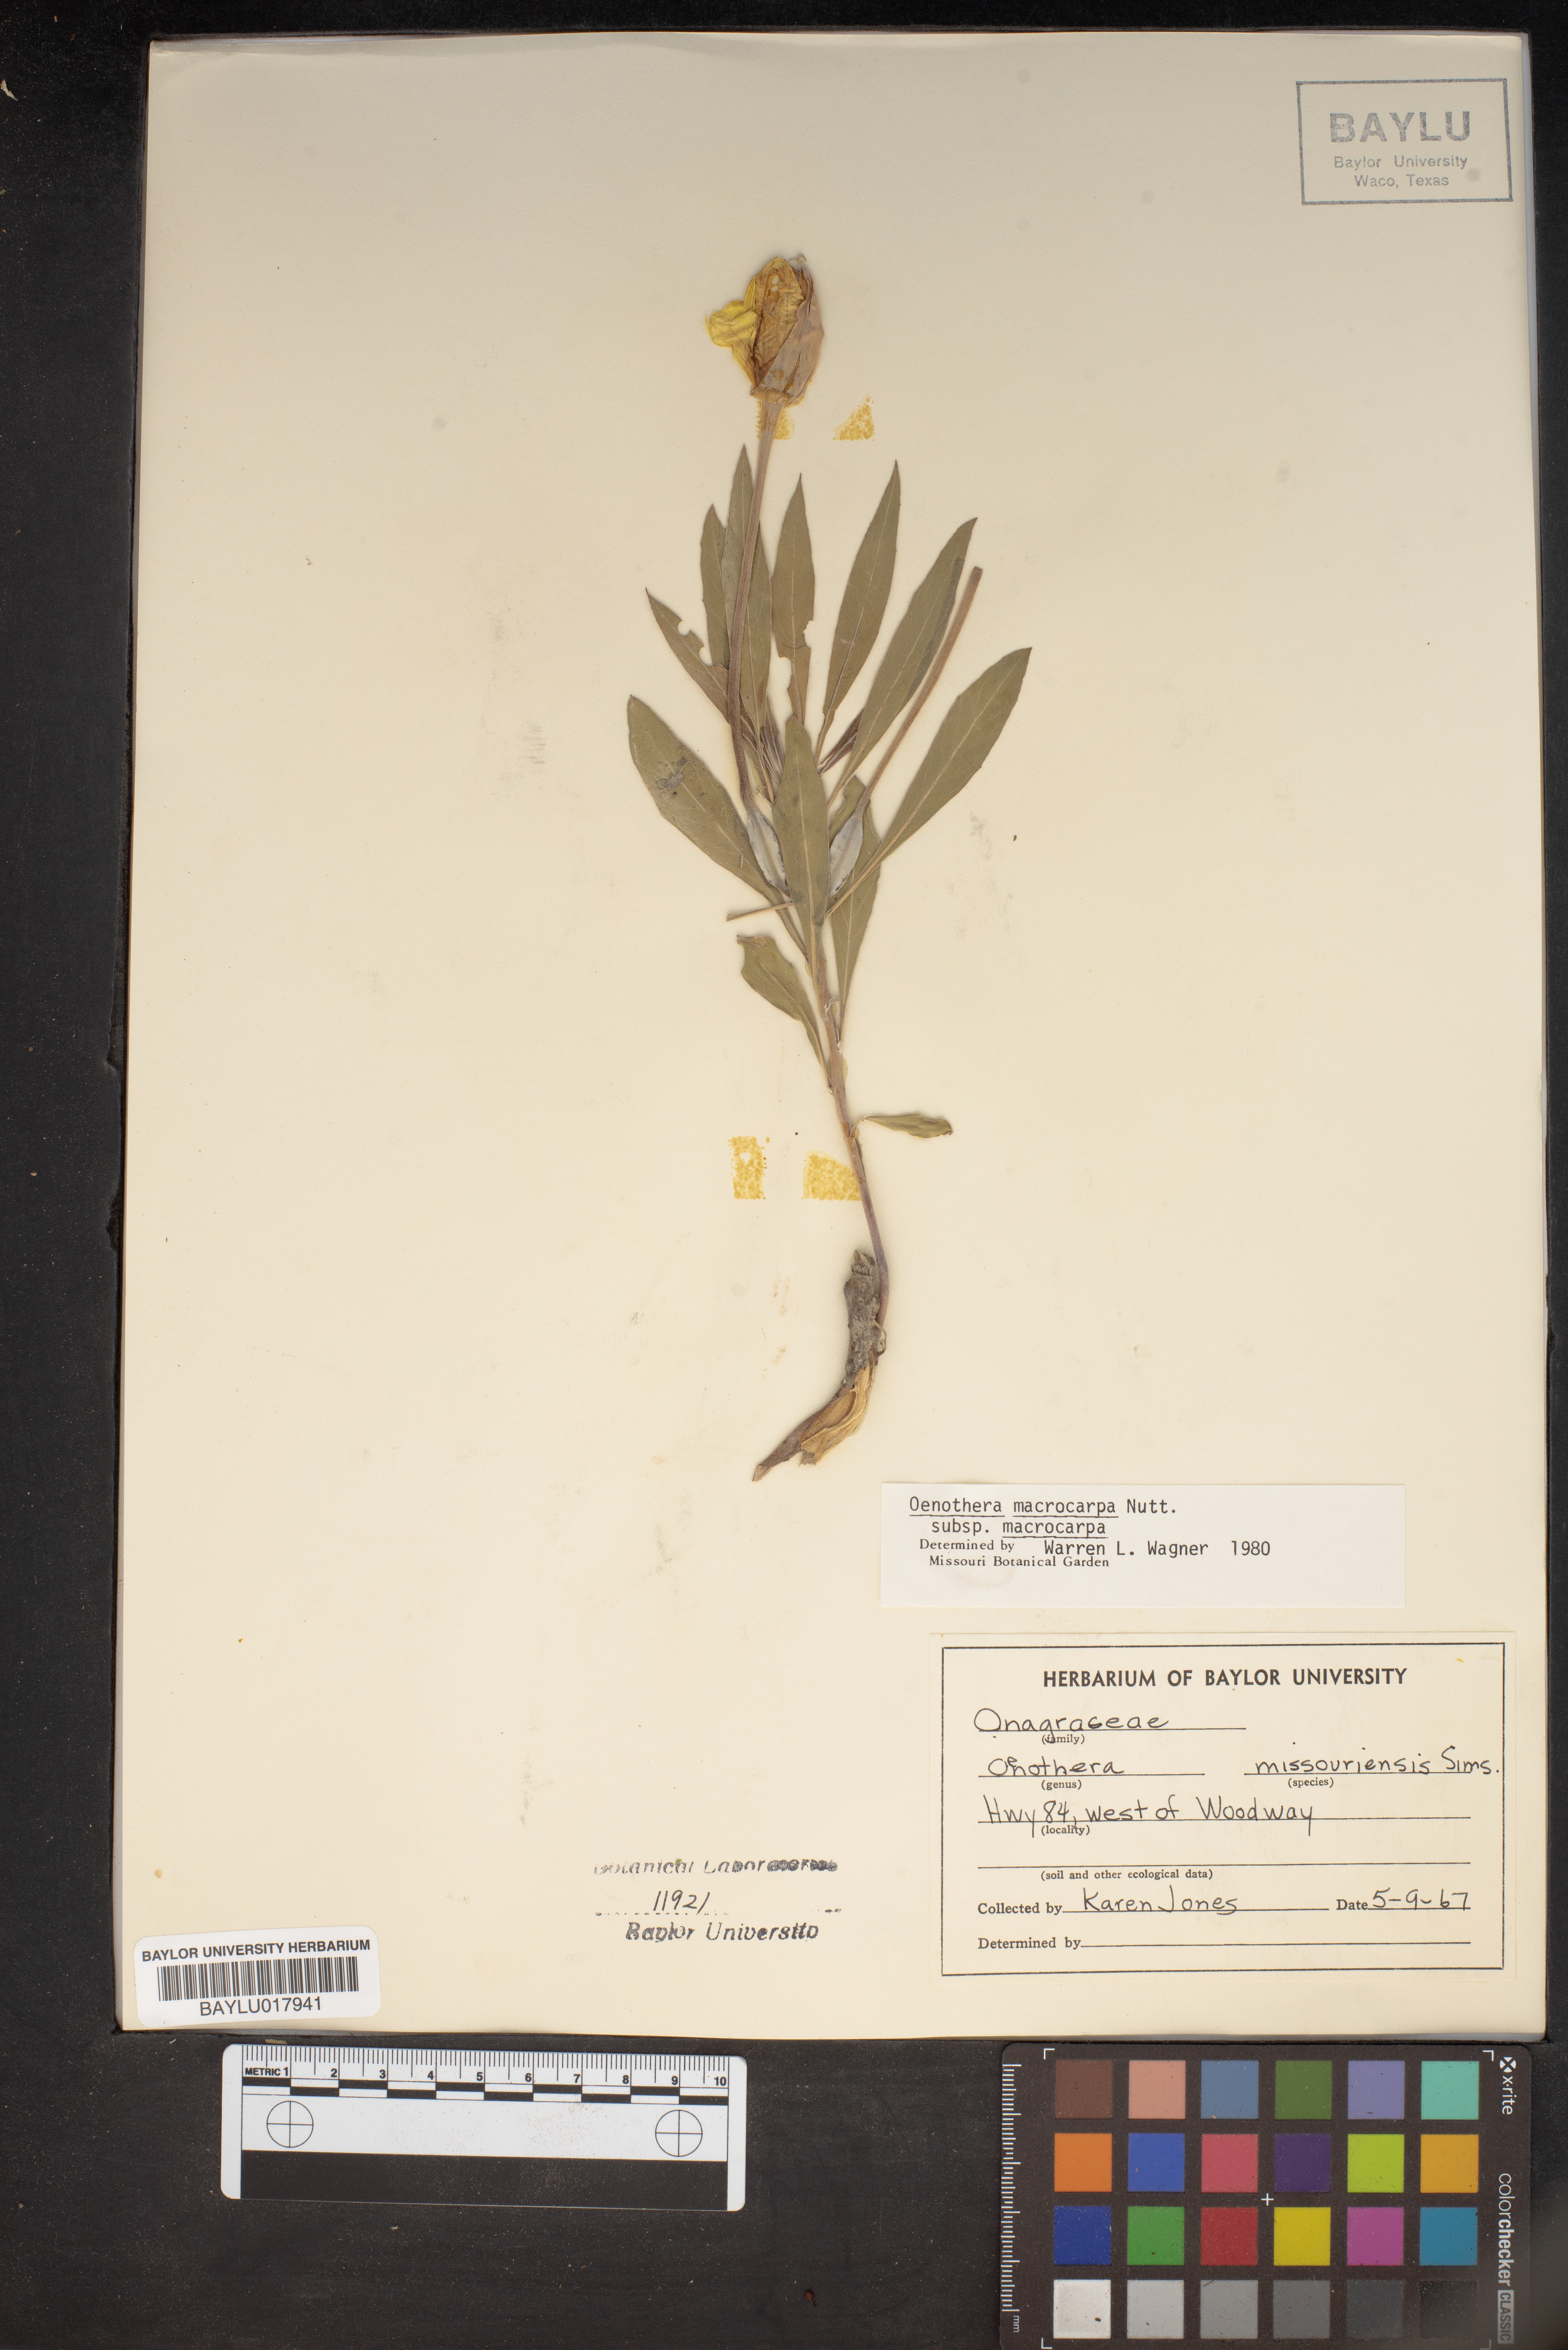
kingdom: Plantae
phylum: Tracheophyta
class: Magnoliopsida
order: Myrtales
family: Onagraceae
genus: Oenothera
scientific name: Oenothera macrocarpa
